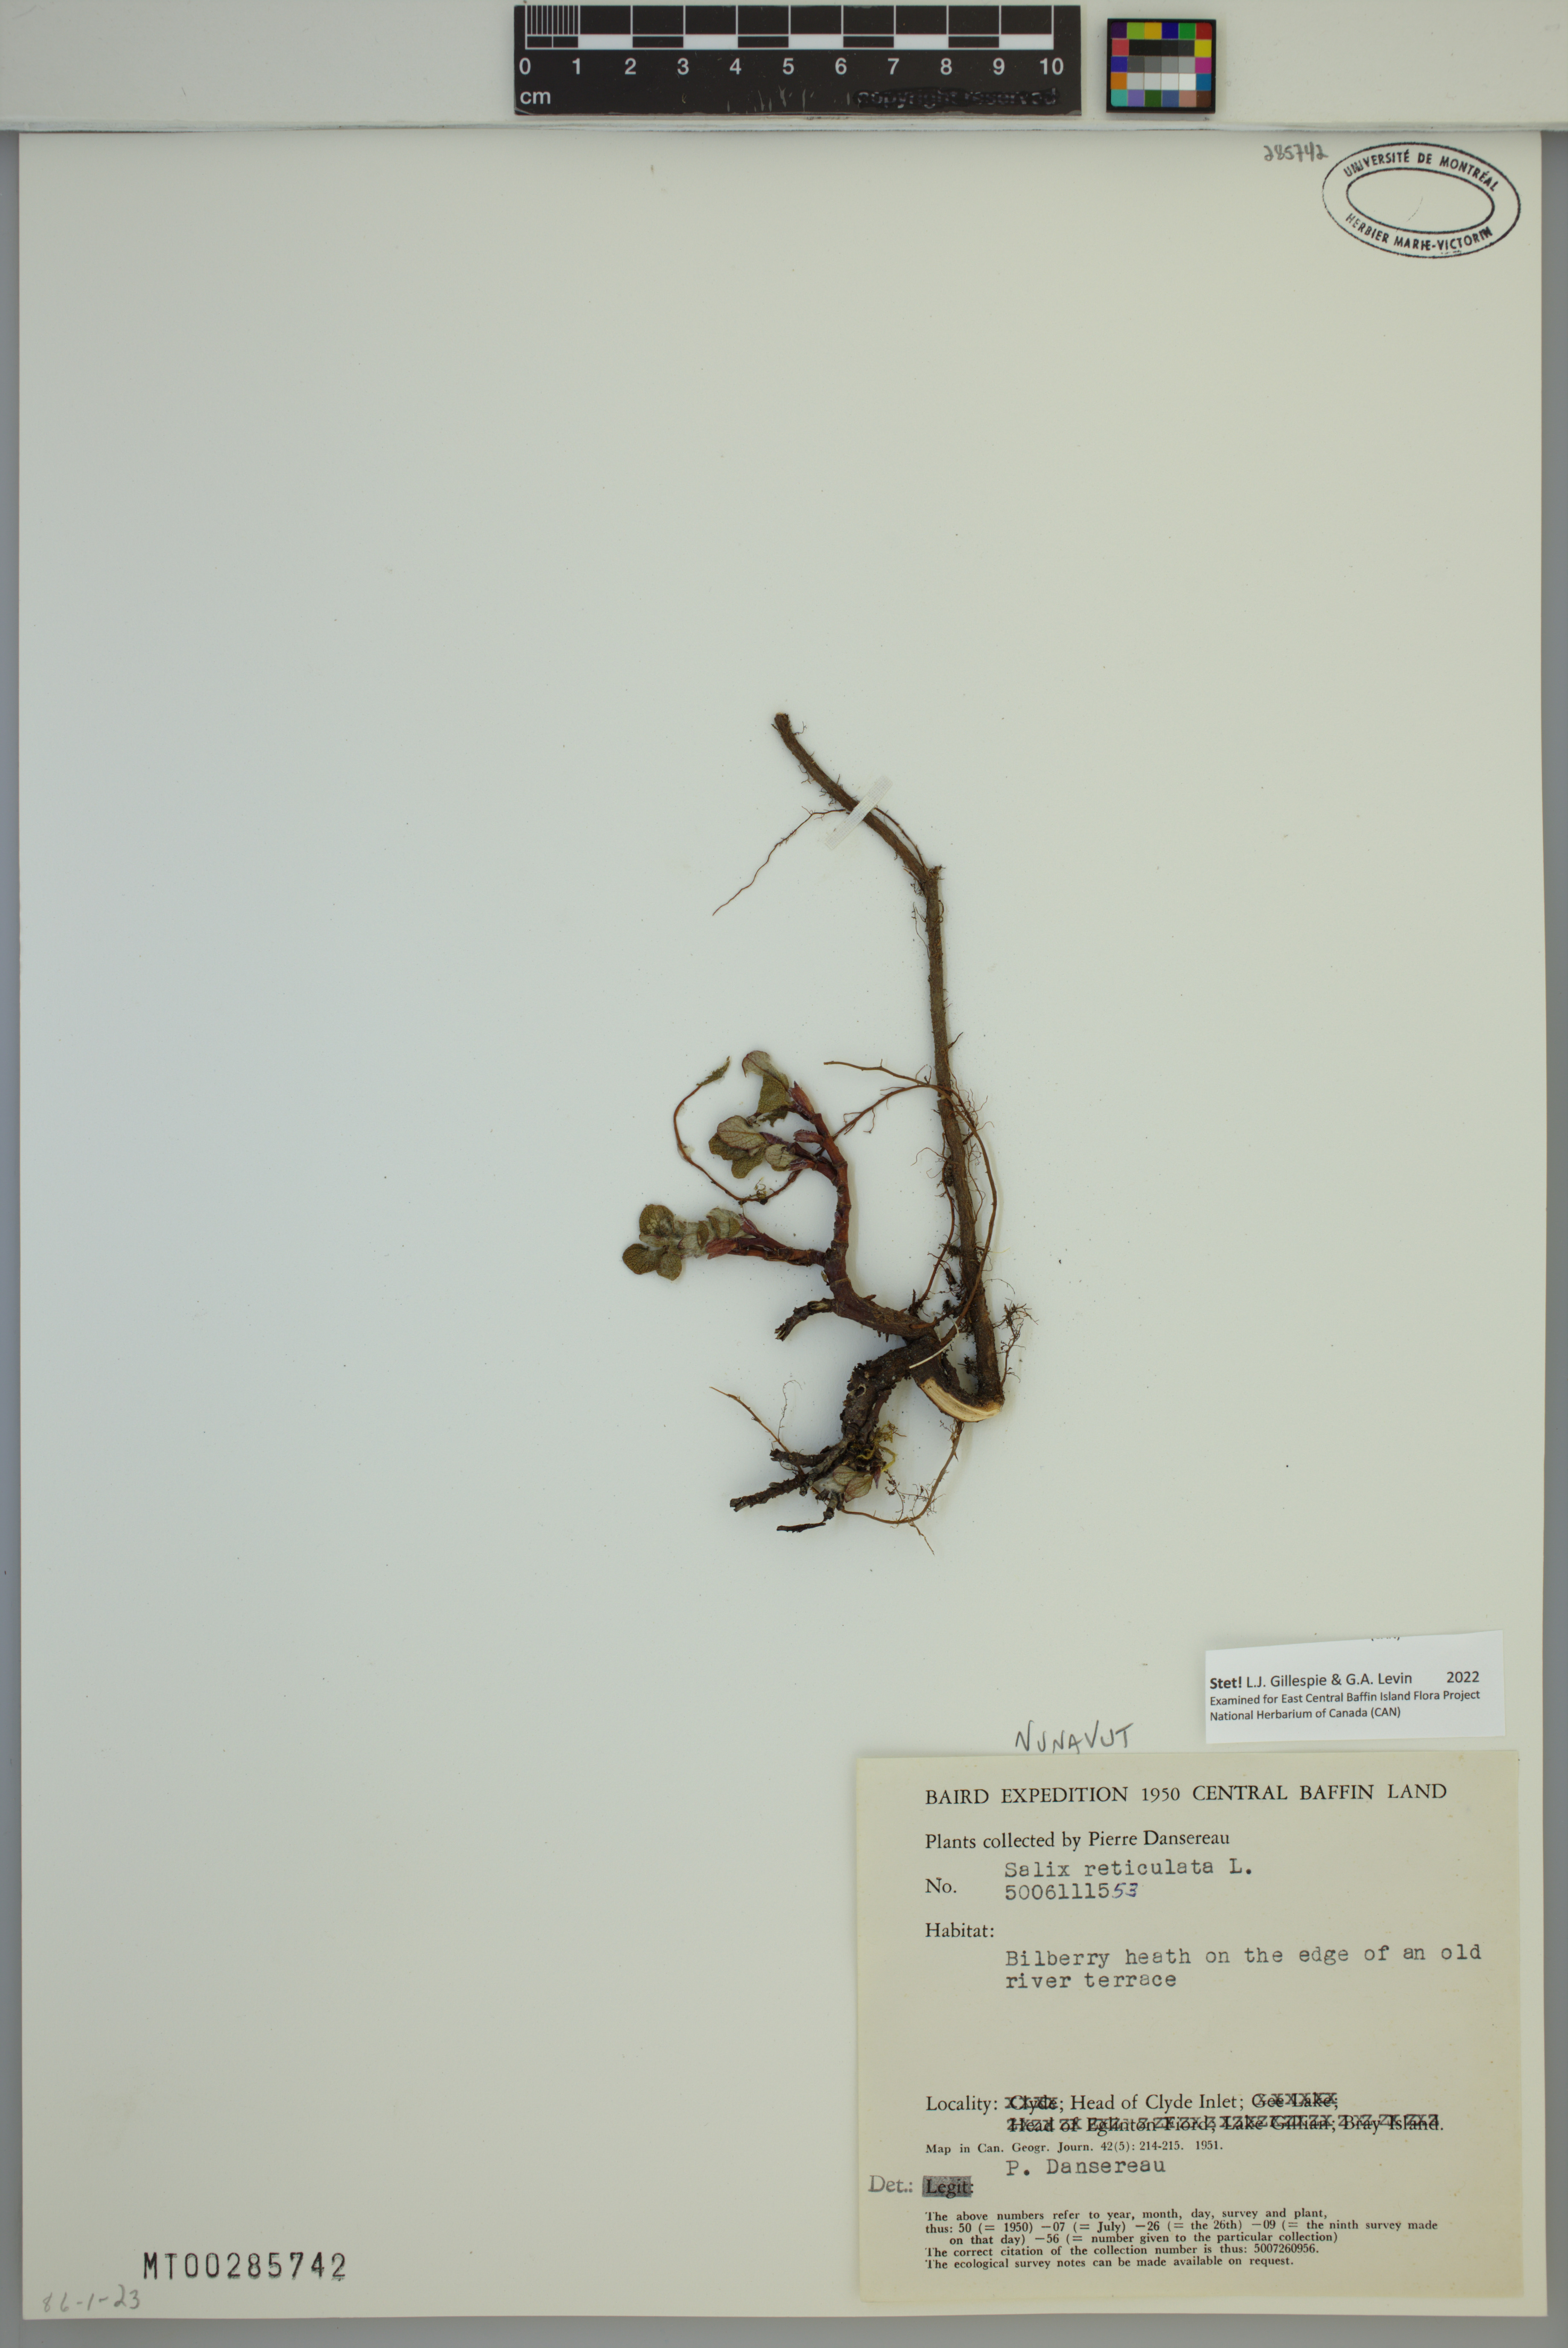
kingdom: Plantae
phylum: Tracheophyta
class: Magnoliopsida
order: Malpighiales
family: Salicaceae
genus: Salix
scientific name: Salix reticulata
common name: Net-leaved willow
